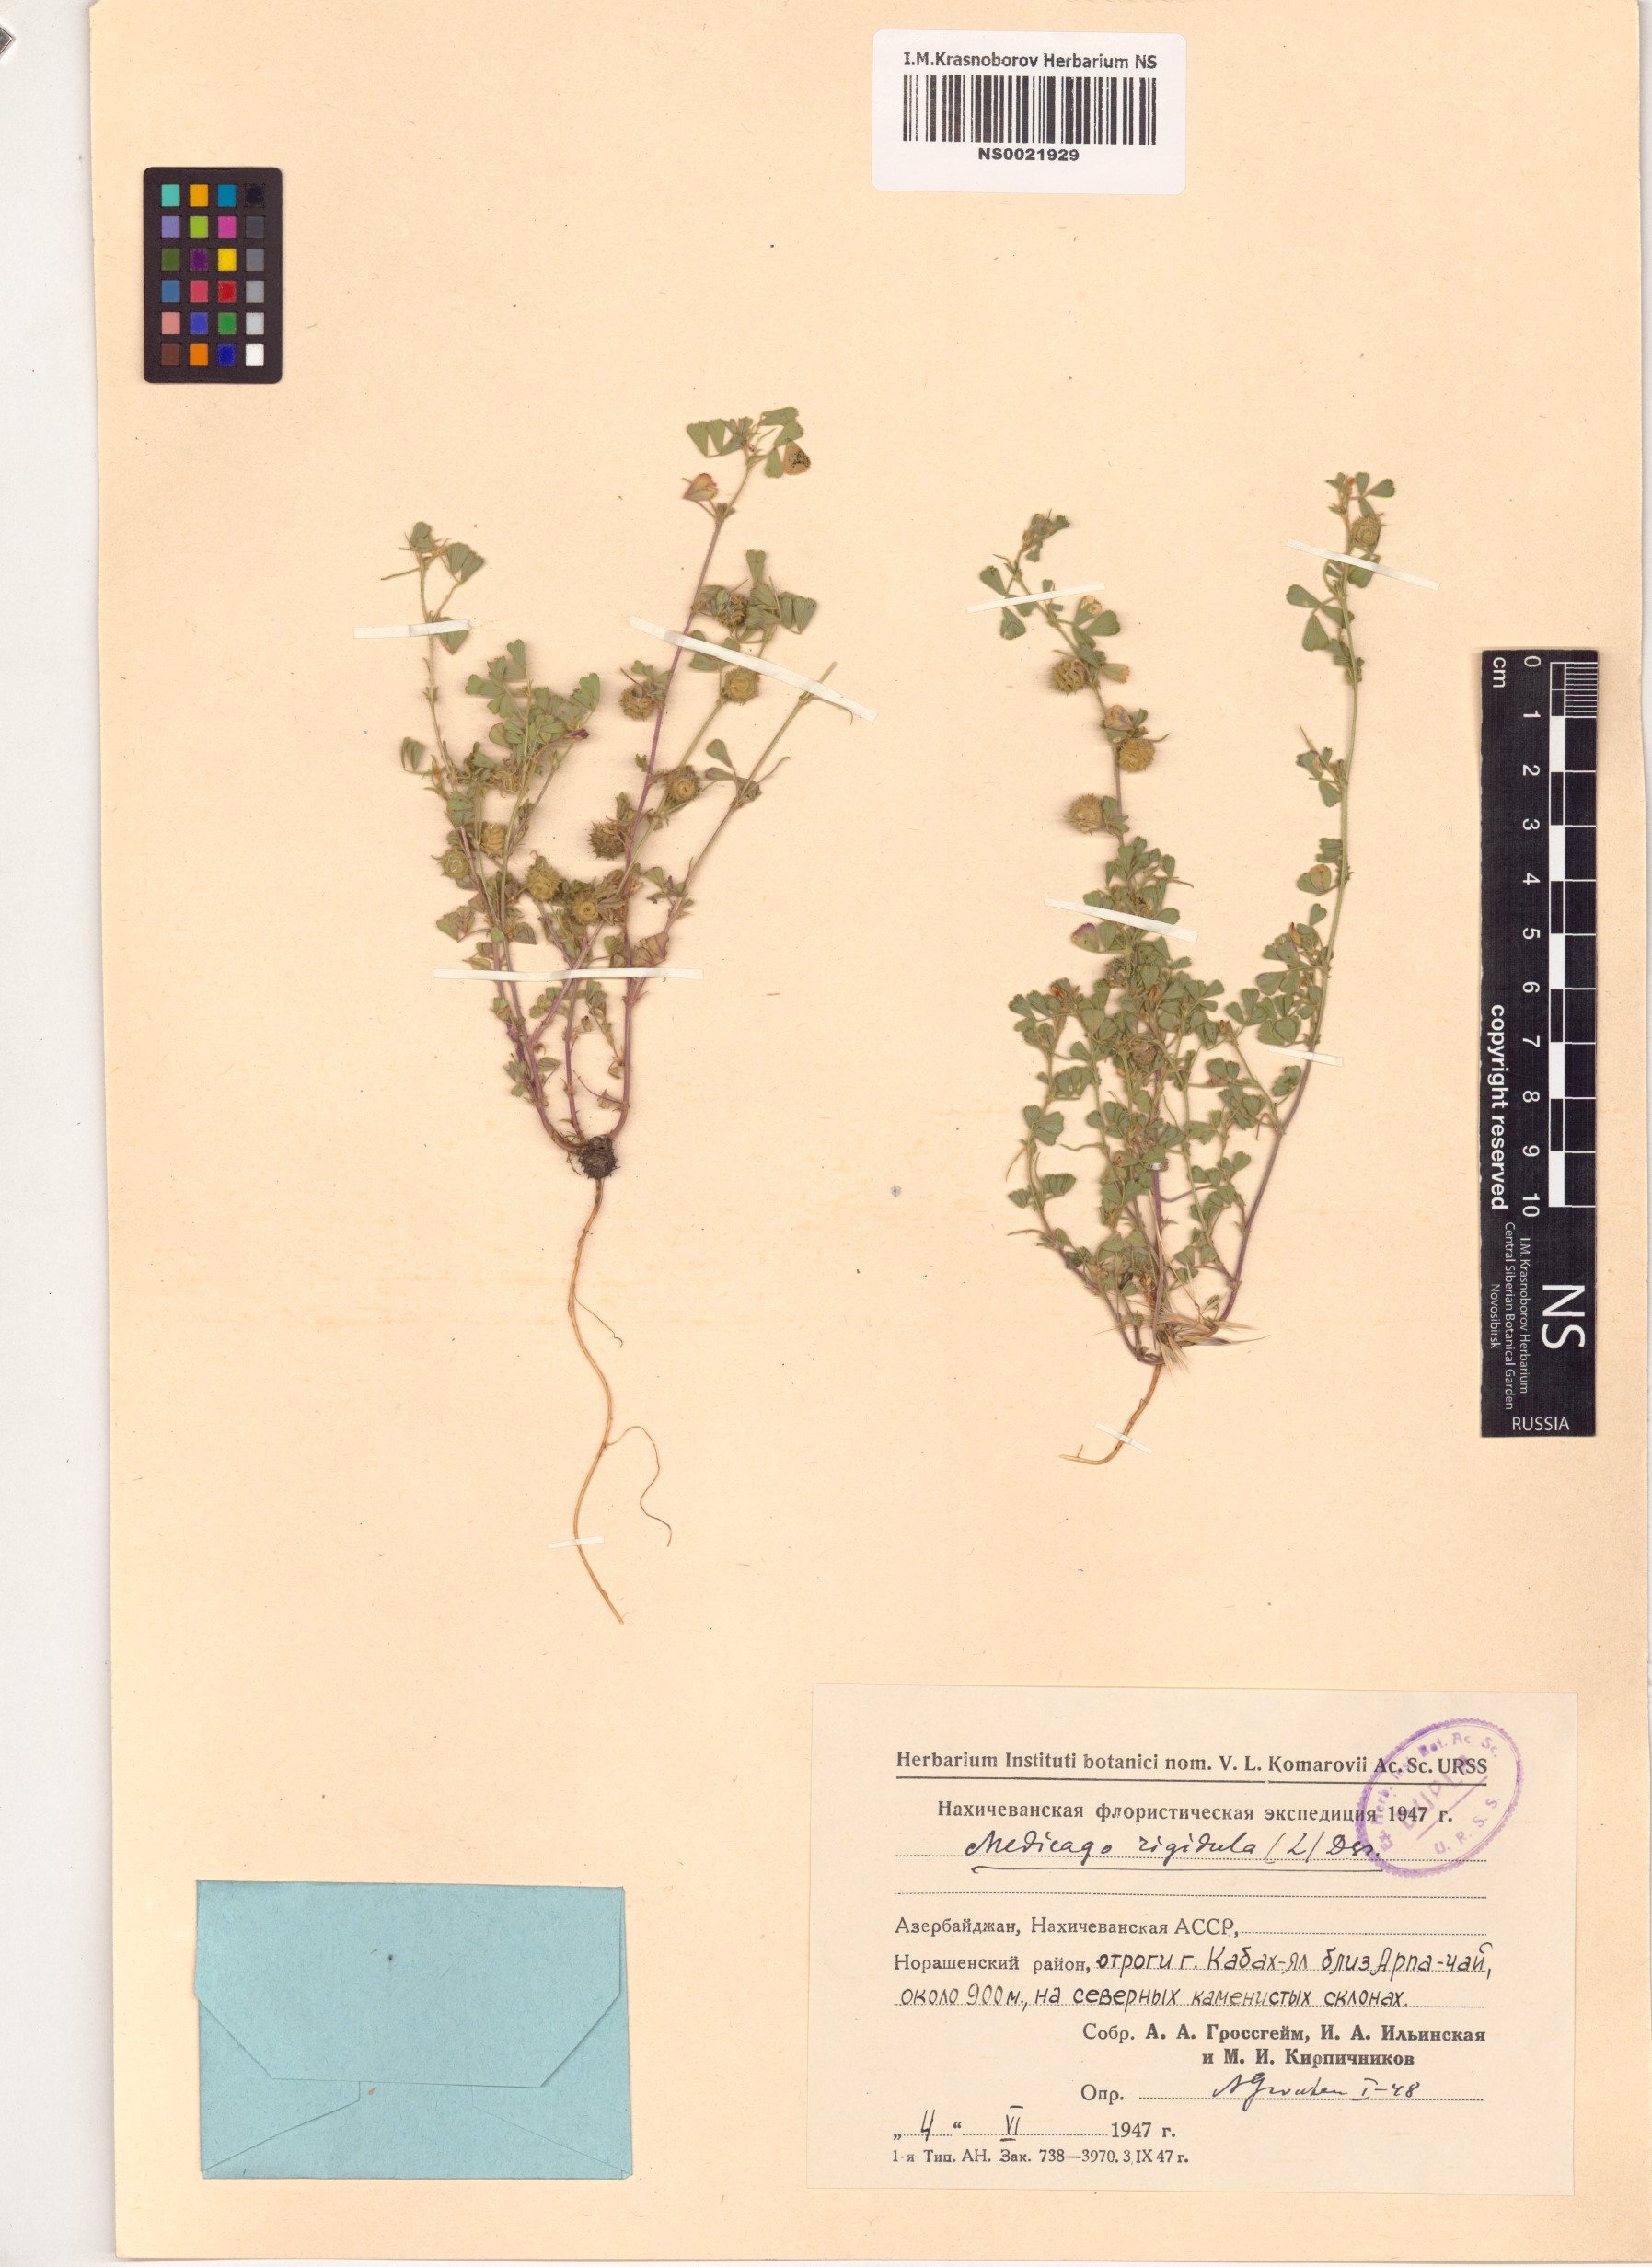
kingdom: Plantae
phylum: Tracheophyta
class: Magnoliopsida
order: Fabales
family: Fabaceae
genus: Medicago
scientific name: Medicago rigidula
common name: Tifton medic
